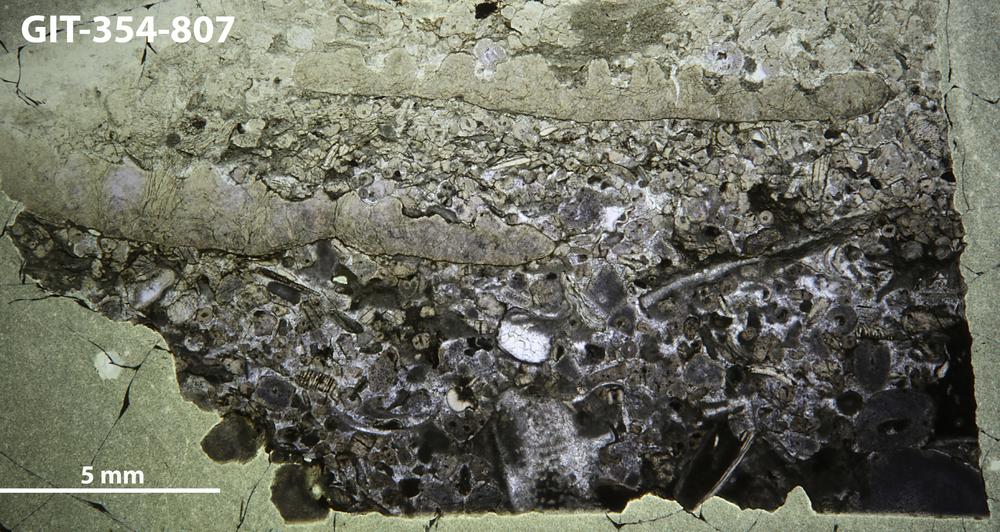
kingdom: Animalia
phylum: Porifera
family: Lophiostromatidae
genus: Lophiostroma
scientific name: Lophiostroma
